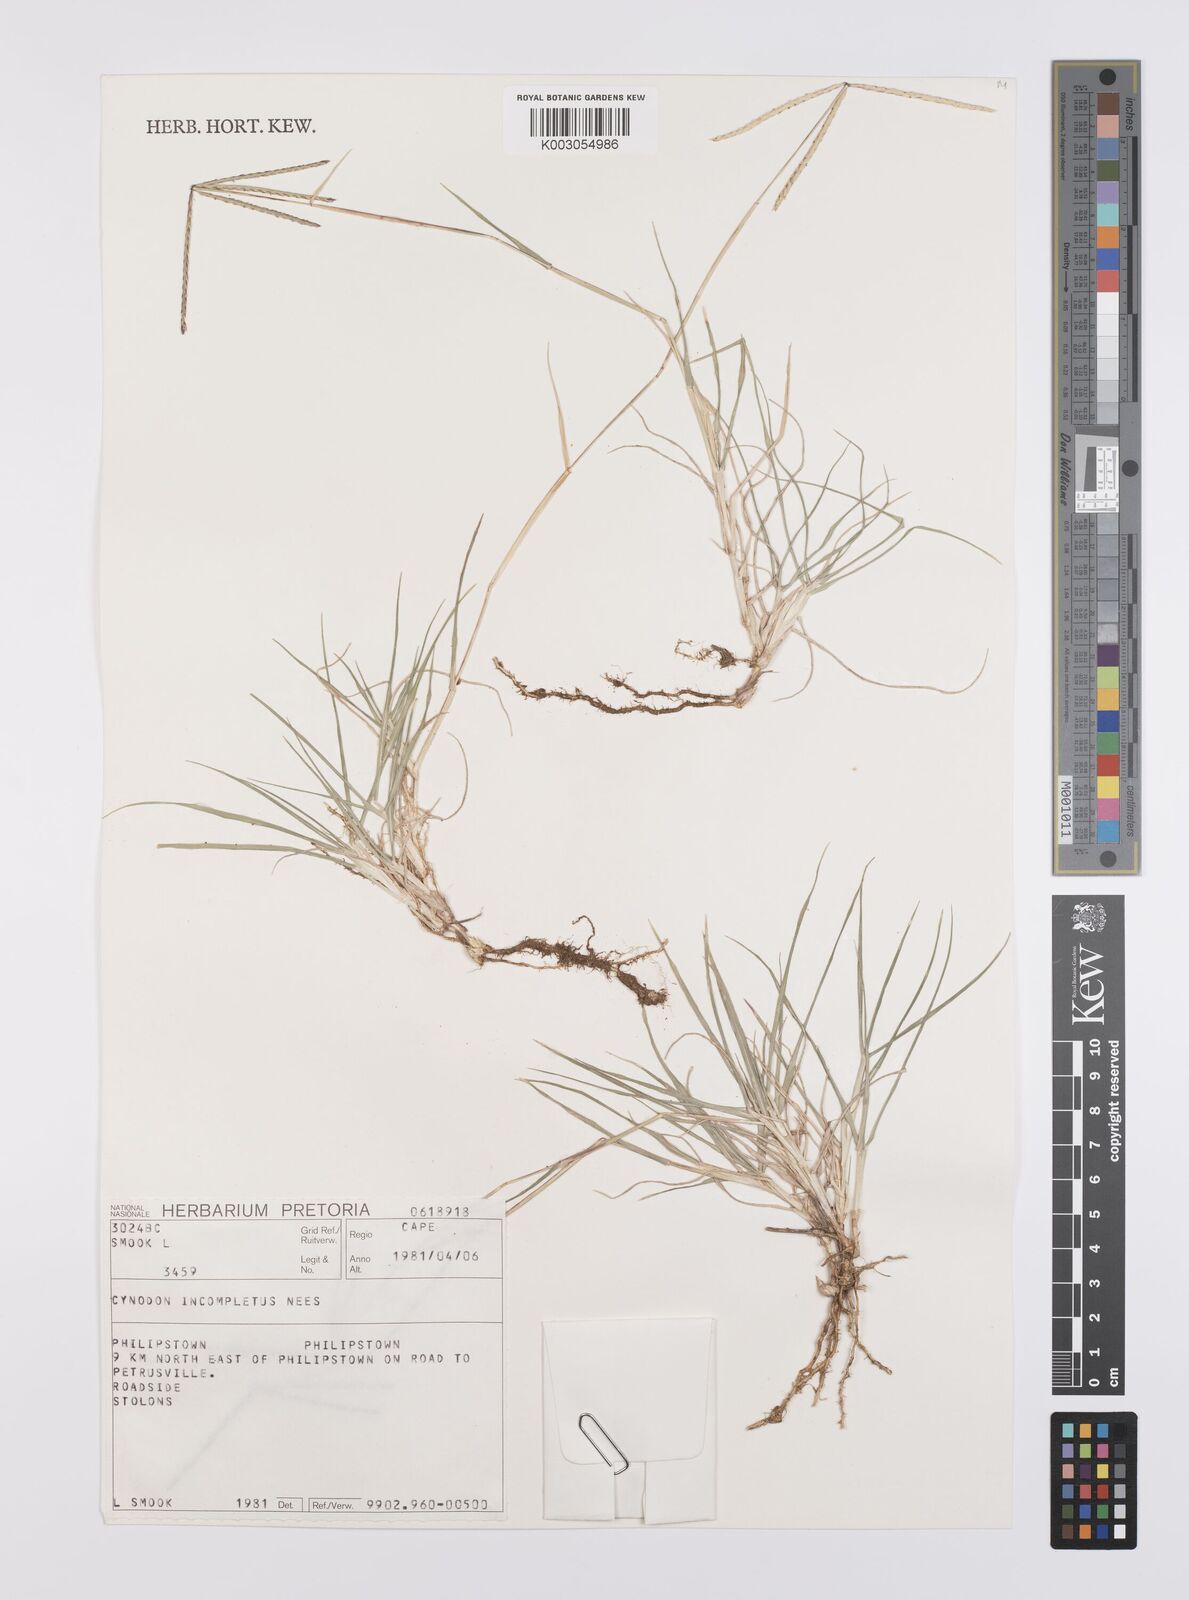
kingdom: Plantae
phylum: Tracheophyta
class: Liliopsida
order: Poales
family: Poaceae
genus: Cynodon
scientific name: Cynodon incompletus
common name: African bermuda-grass
